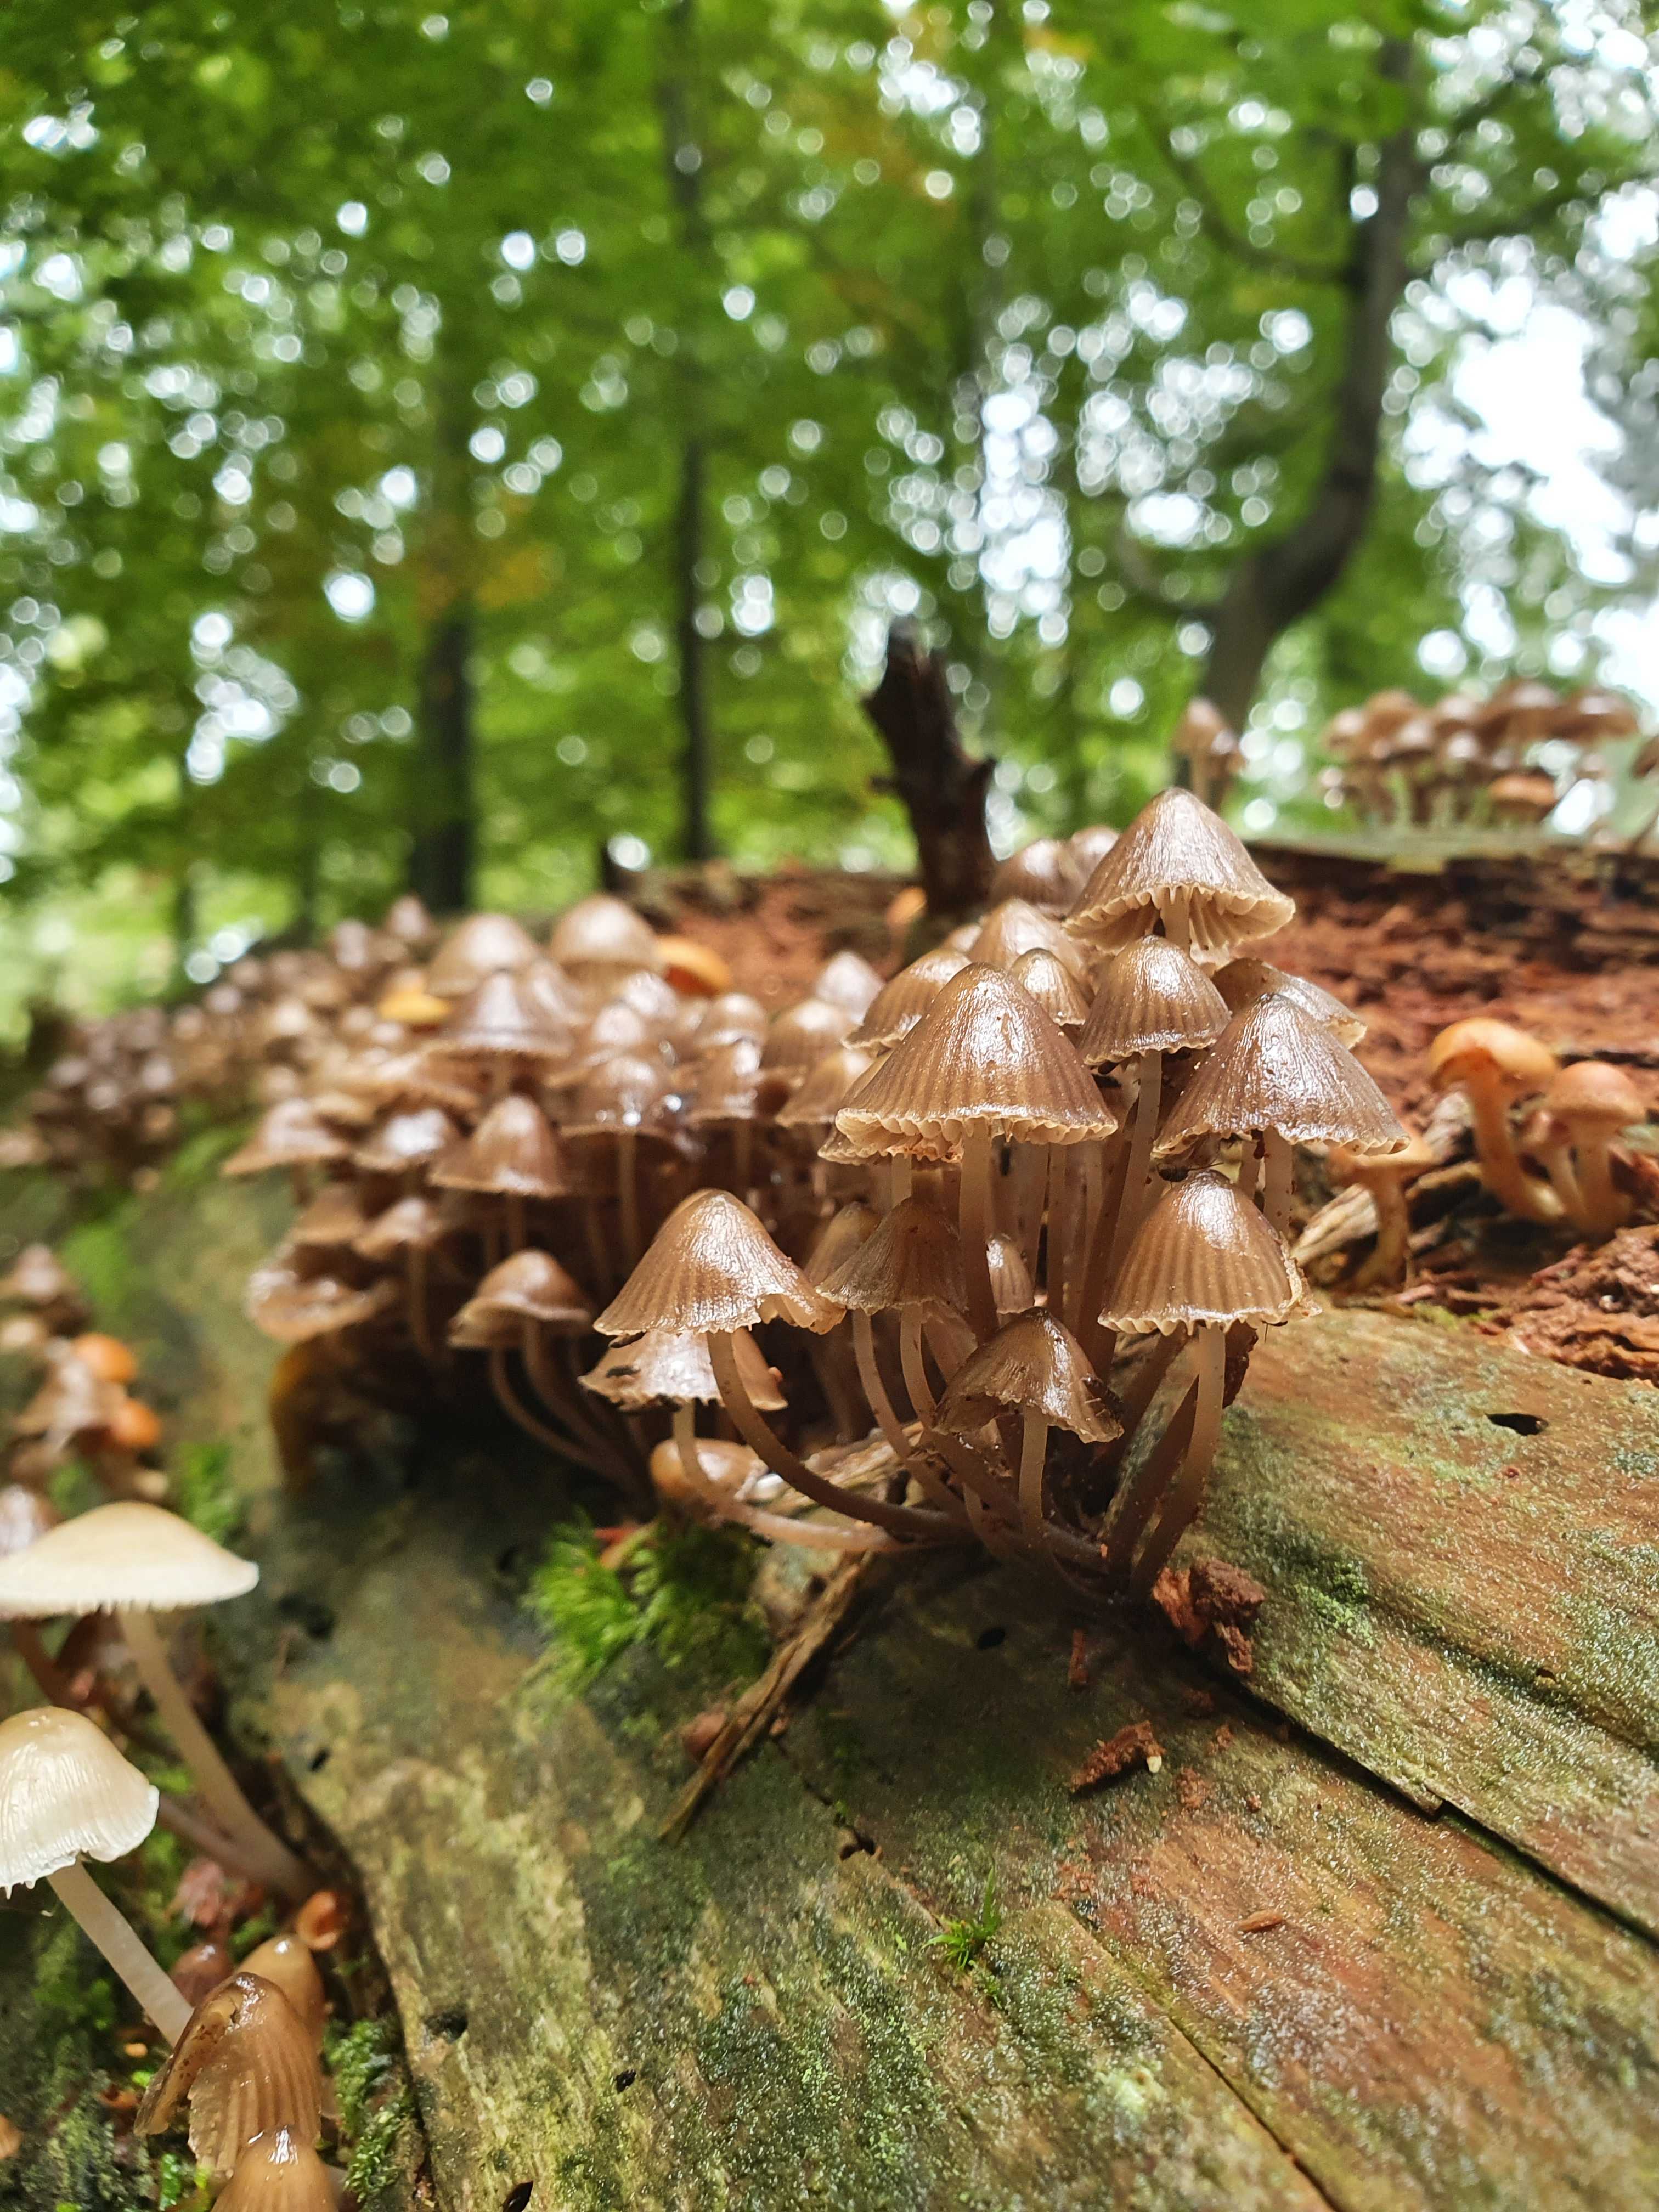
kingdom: Fungi
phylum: Basidiomycota
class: Agaricomycetes
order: Agaricales
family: Mycenaceae
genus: Mycena
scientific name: Mycena stipata
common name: stinkende huesvamp
